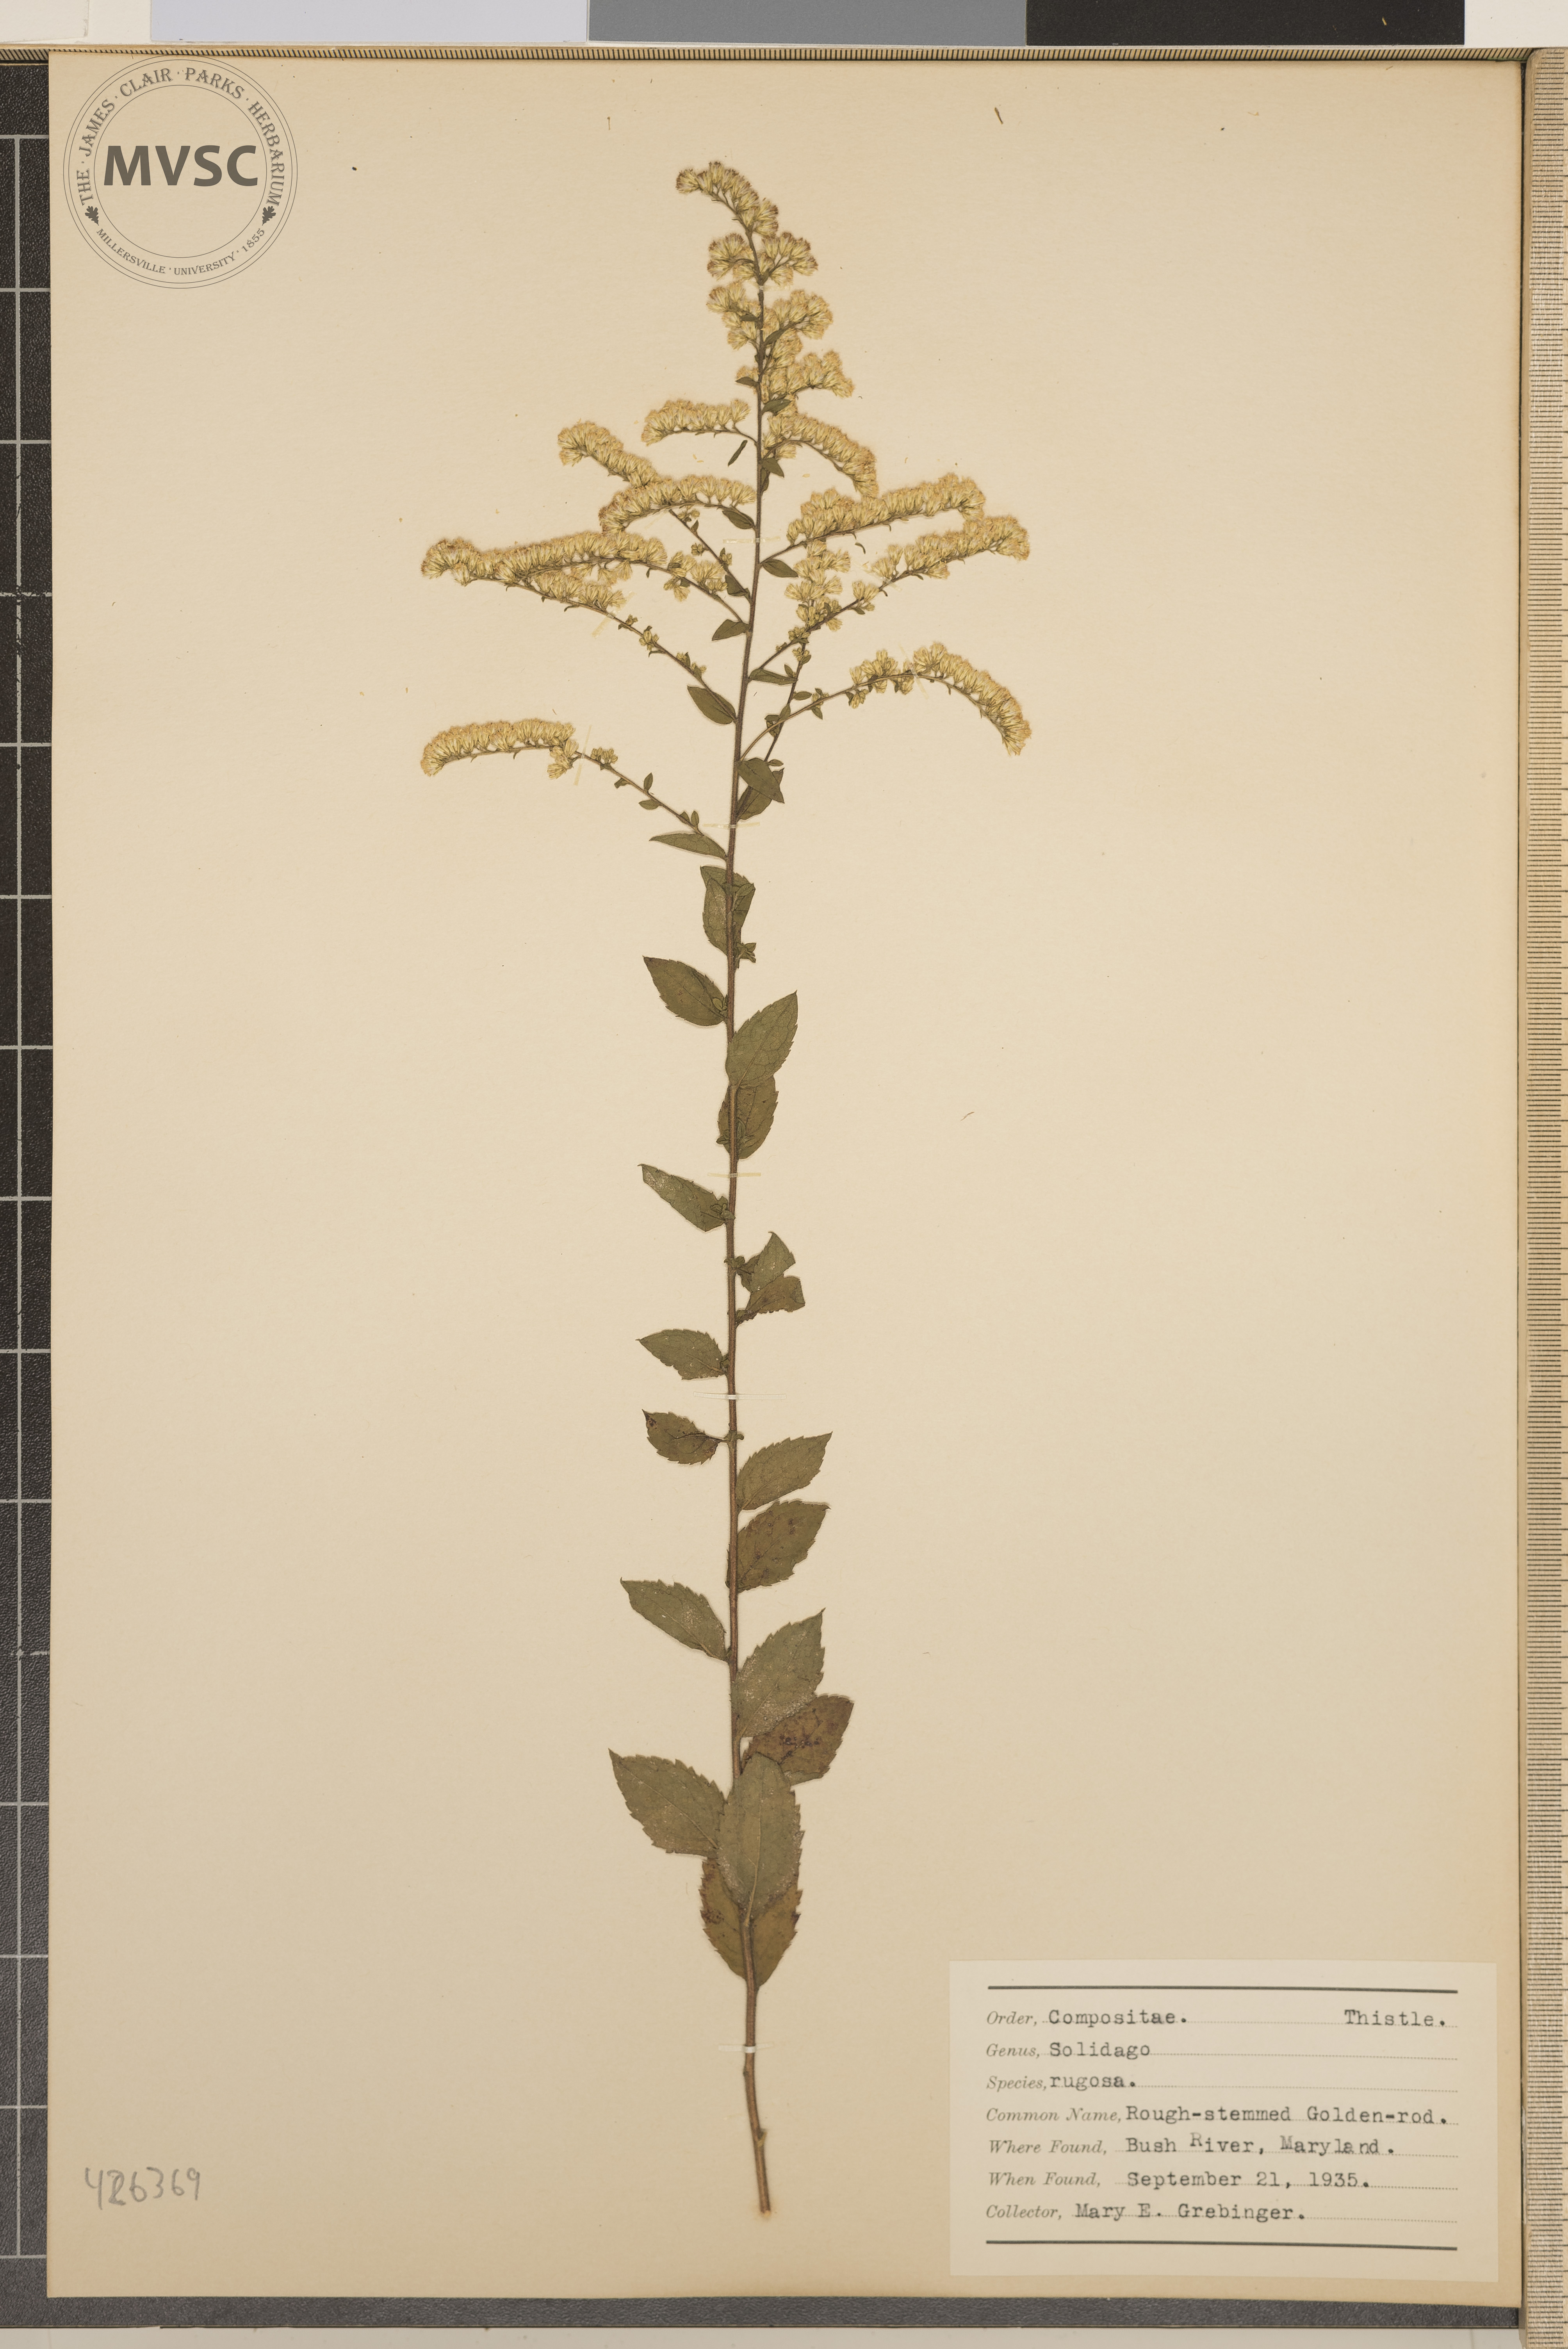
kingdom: Plantae
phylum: Tracheophyta
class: Magnoliopsida
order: Asterales
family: Asteraceae
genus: Solidago
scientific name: Solidago rugosa
